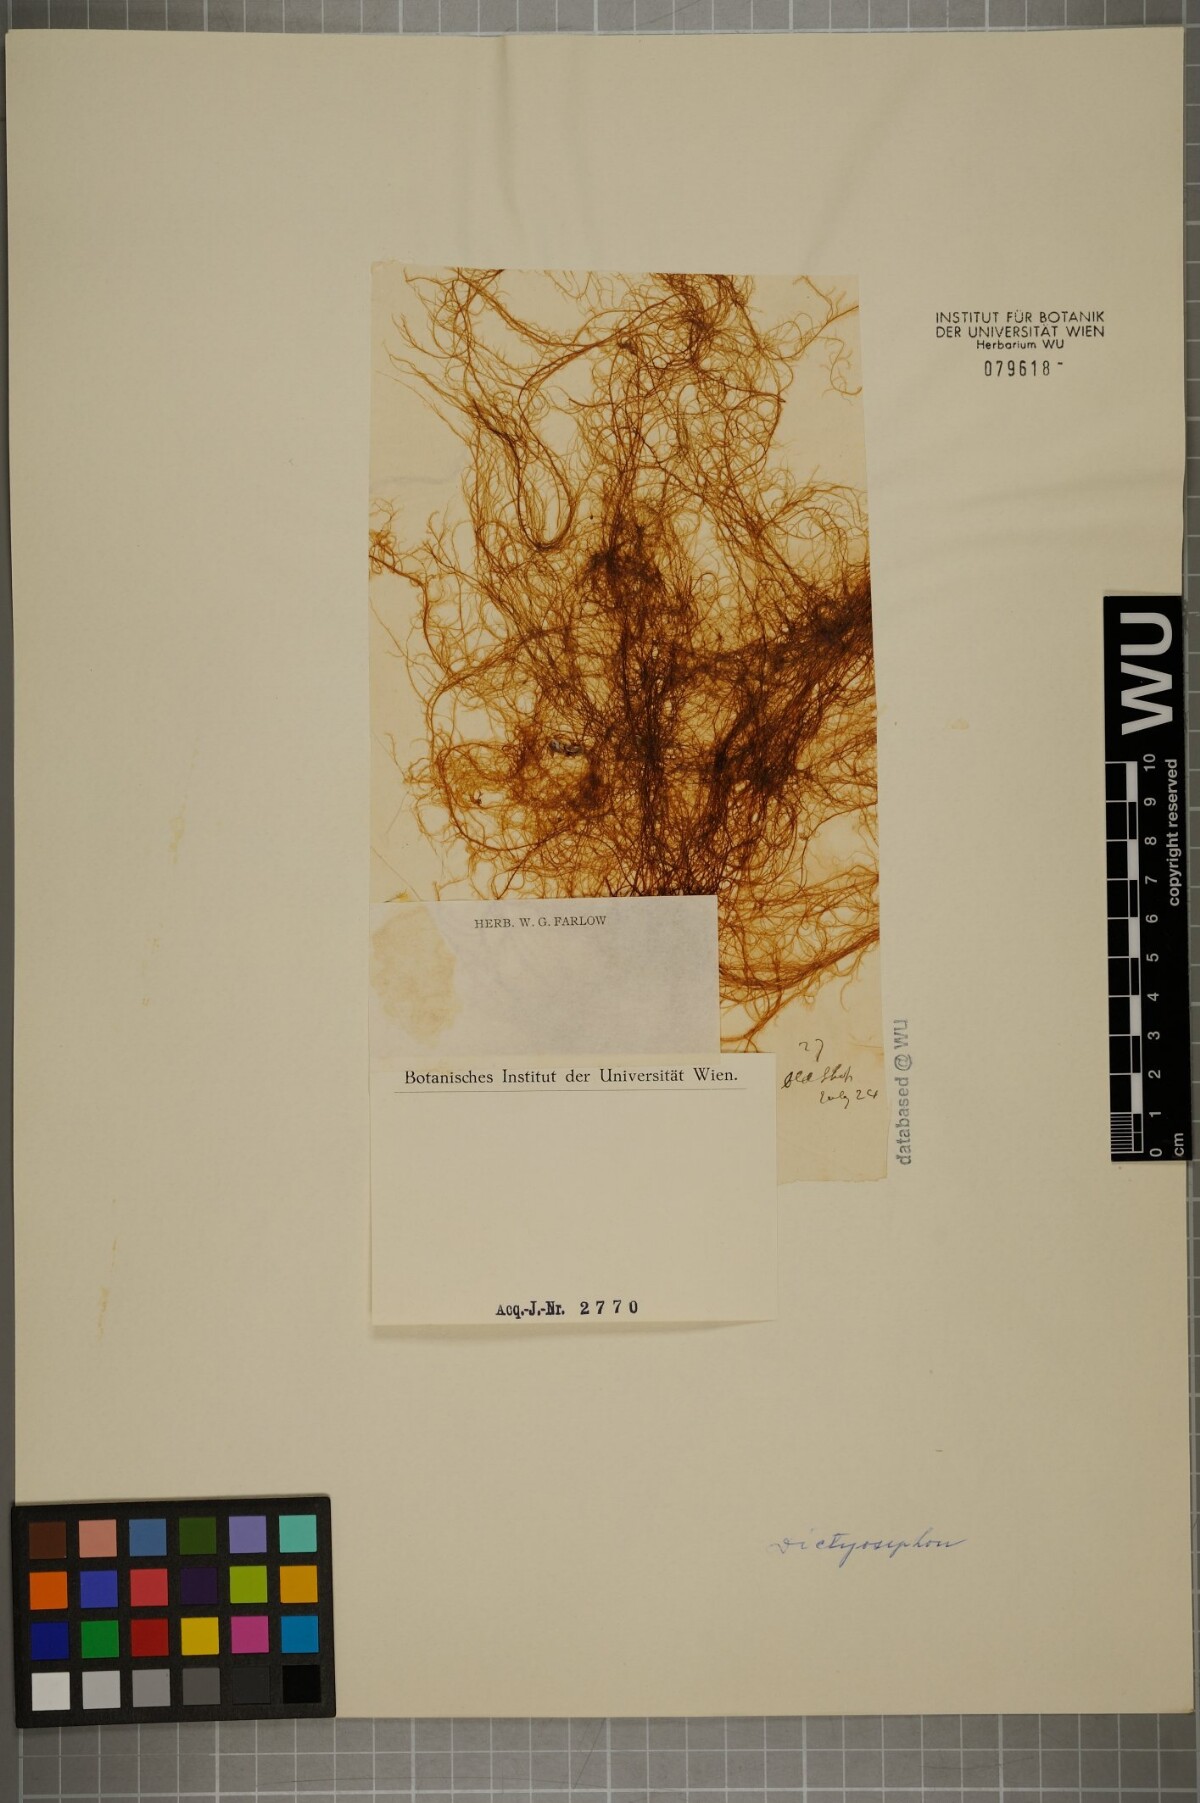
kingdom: Chromista
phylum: Ochrophyta
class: Phaeophyceae
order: Ectocarpales
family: Chordariaceae
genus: Dictyosiphon
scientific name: Dictyosiphon foeniculaceus
